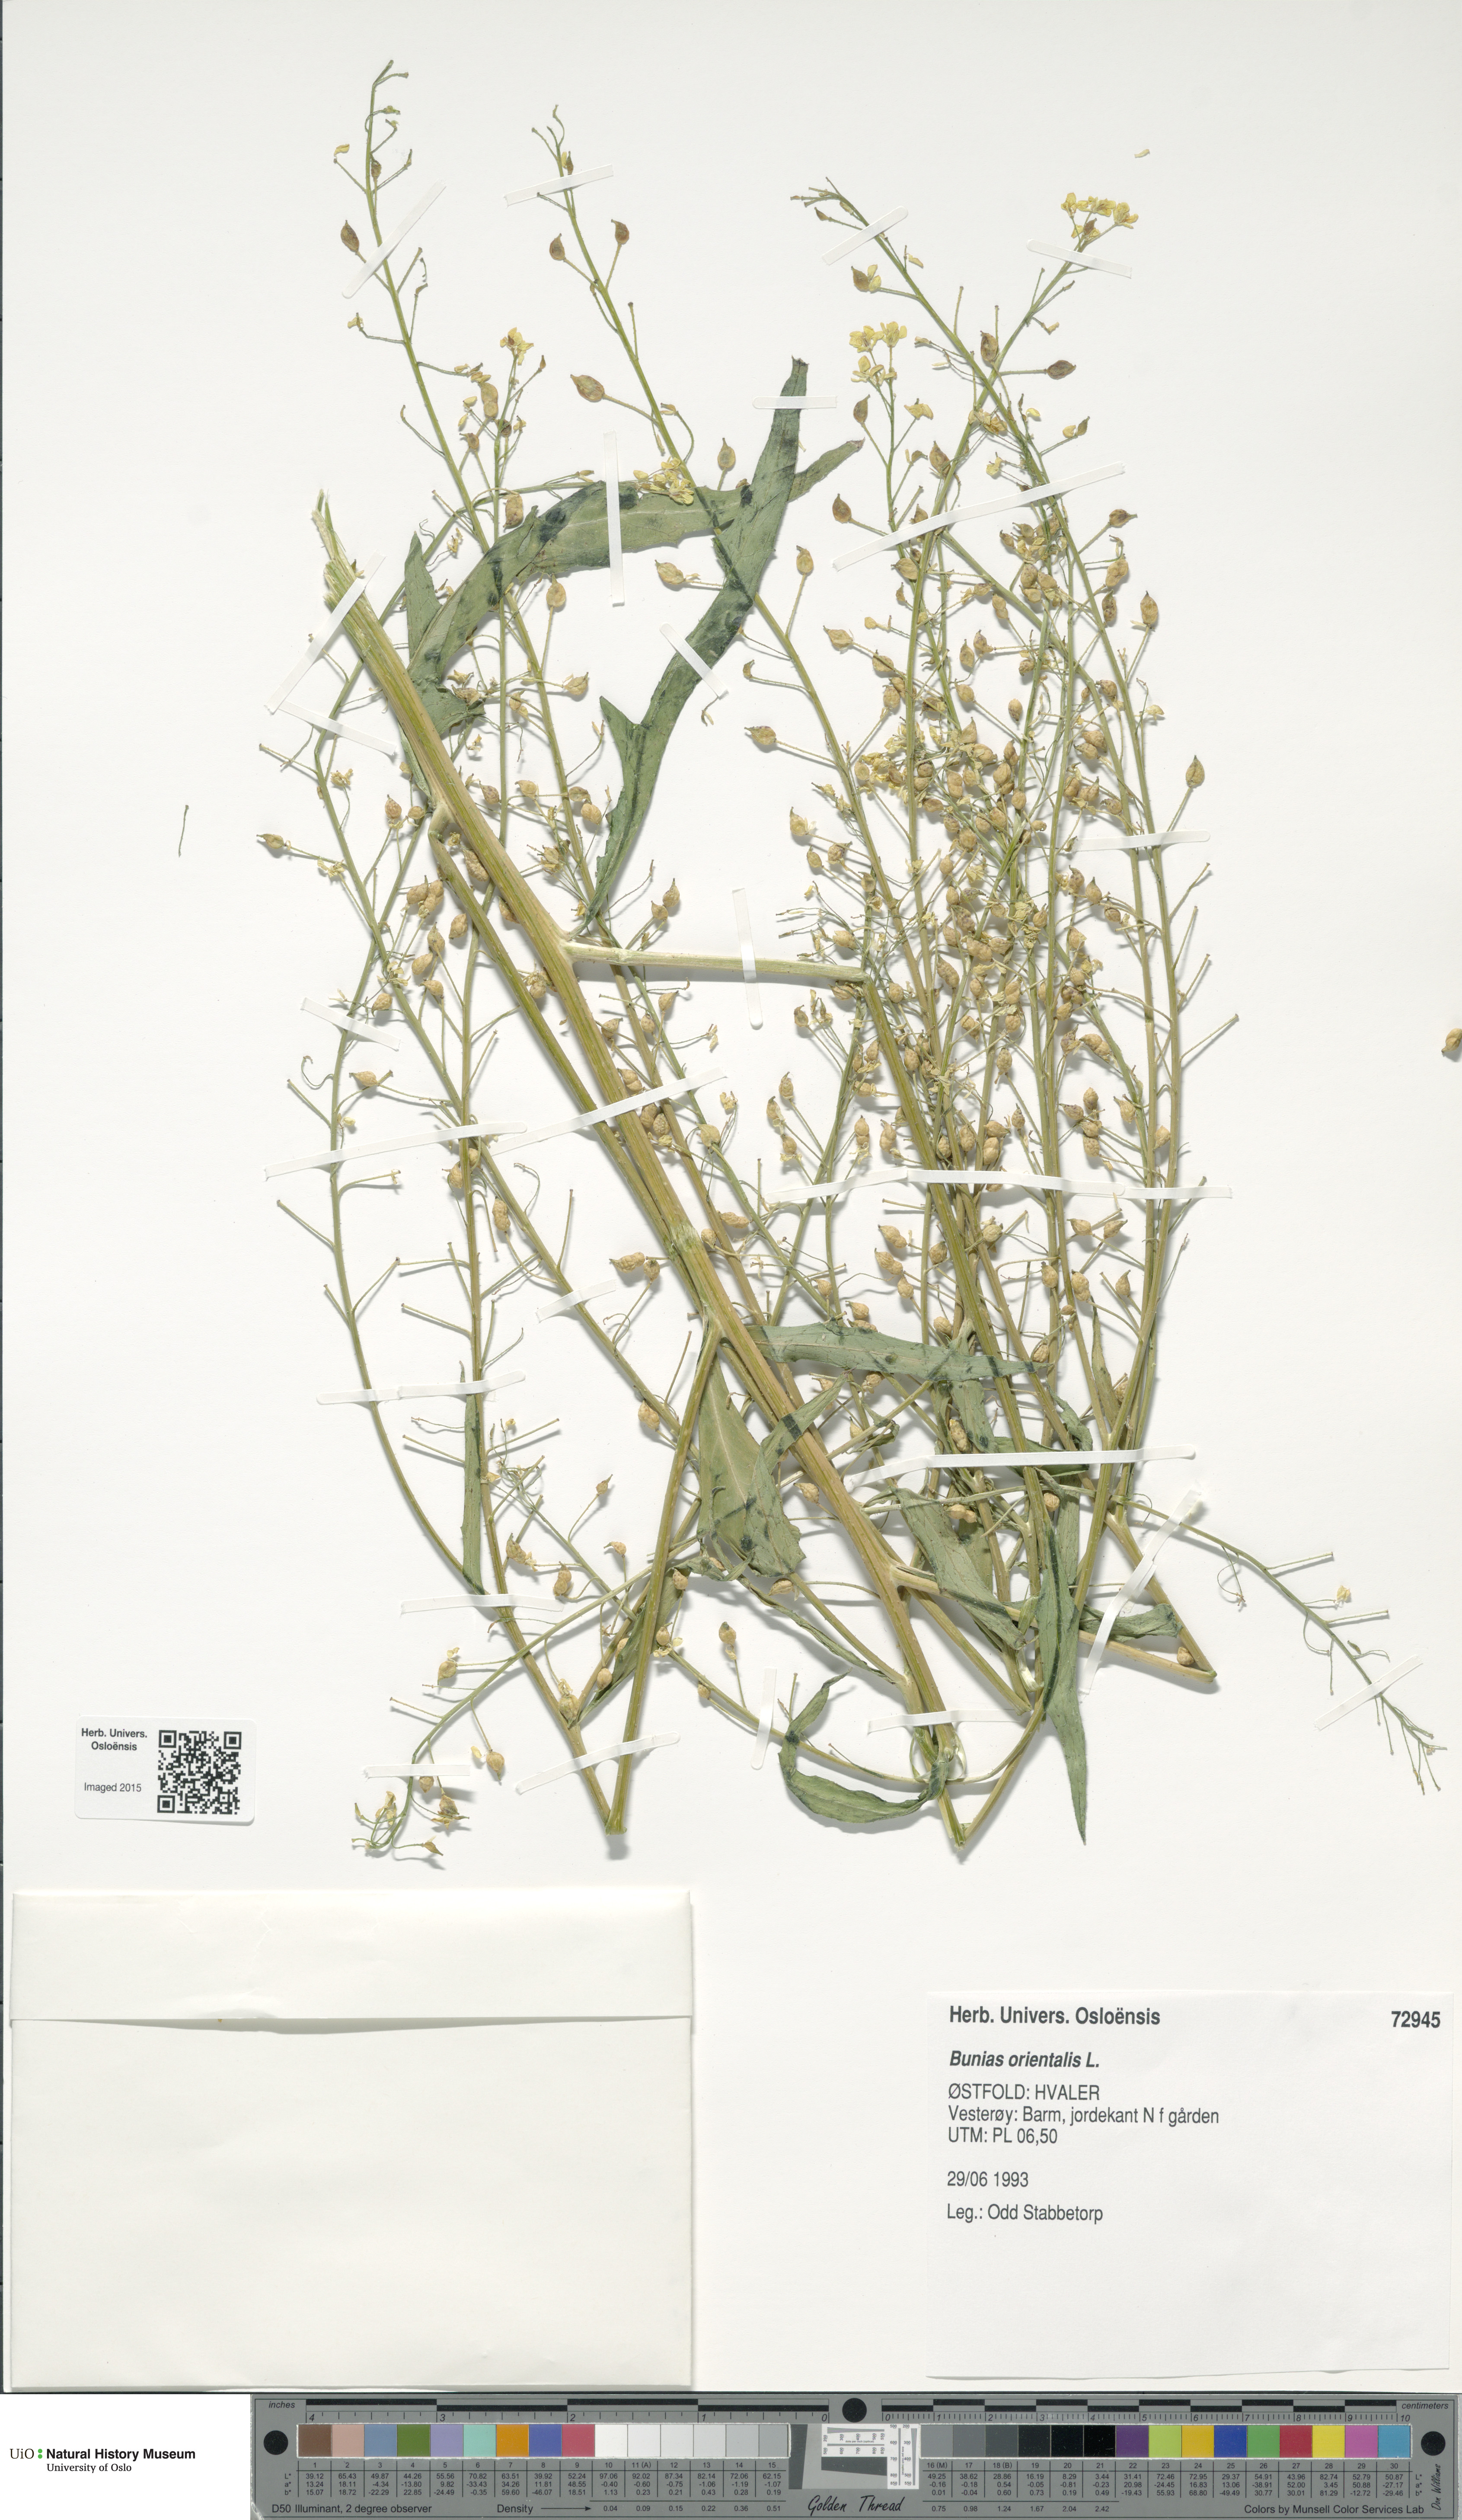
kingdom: Plantae
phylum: Tracheophyta
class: Magnoliopsida
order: Brassicales
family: Brassicaceae
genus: Bunias
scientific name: Bunias orientalis
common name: Warty-cabbage
